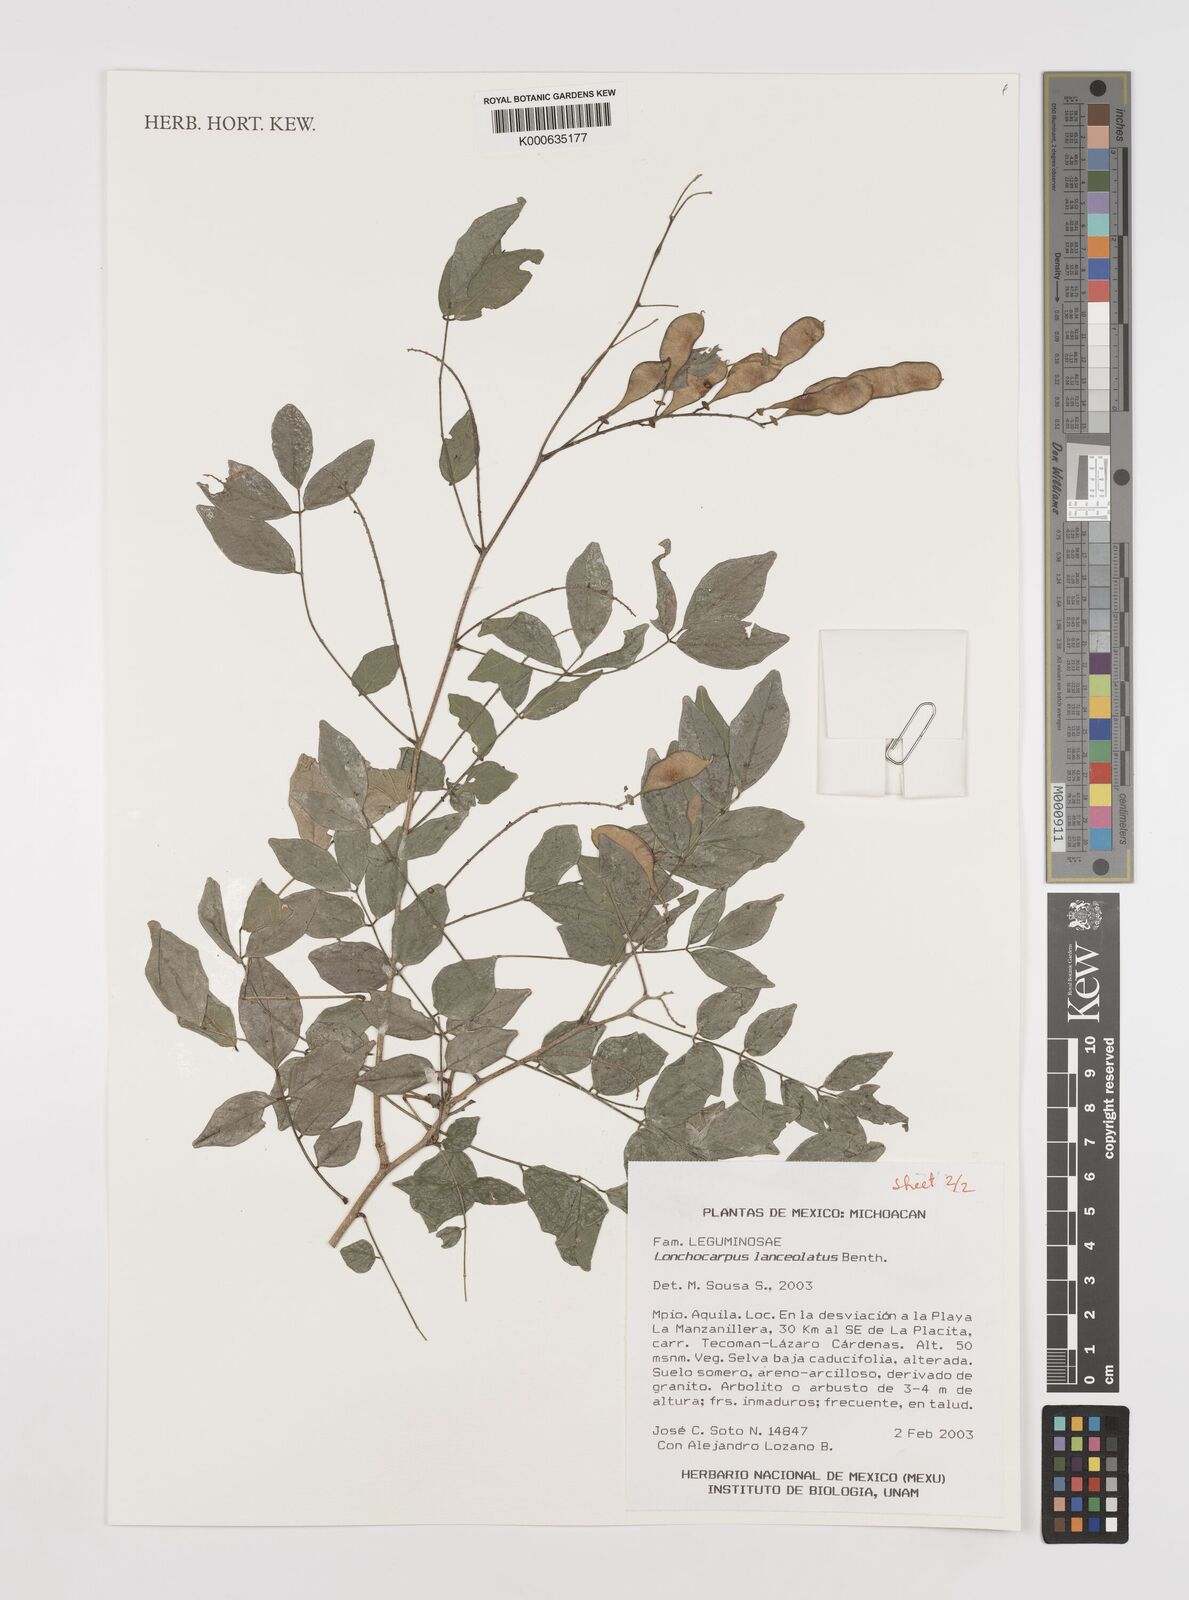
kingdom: Plantae
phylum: Tracheophyta
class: Magnoliopsida
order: Fabales
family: Fabaceae
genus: Lonchocarpus
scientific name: Lonchocarpus lanceolatus
